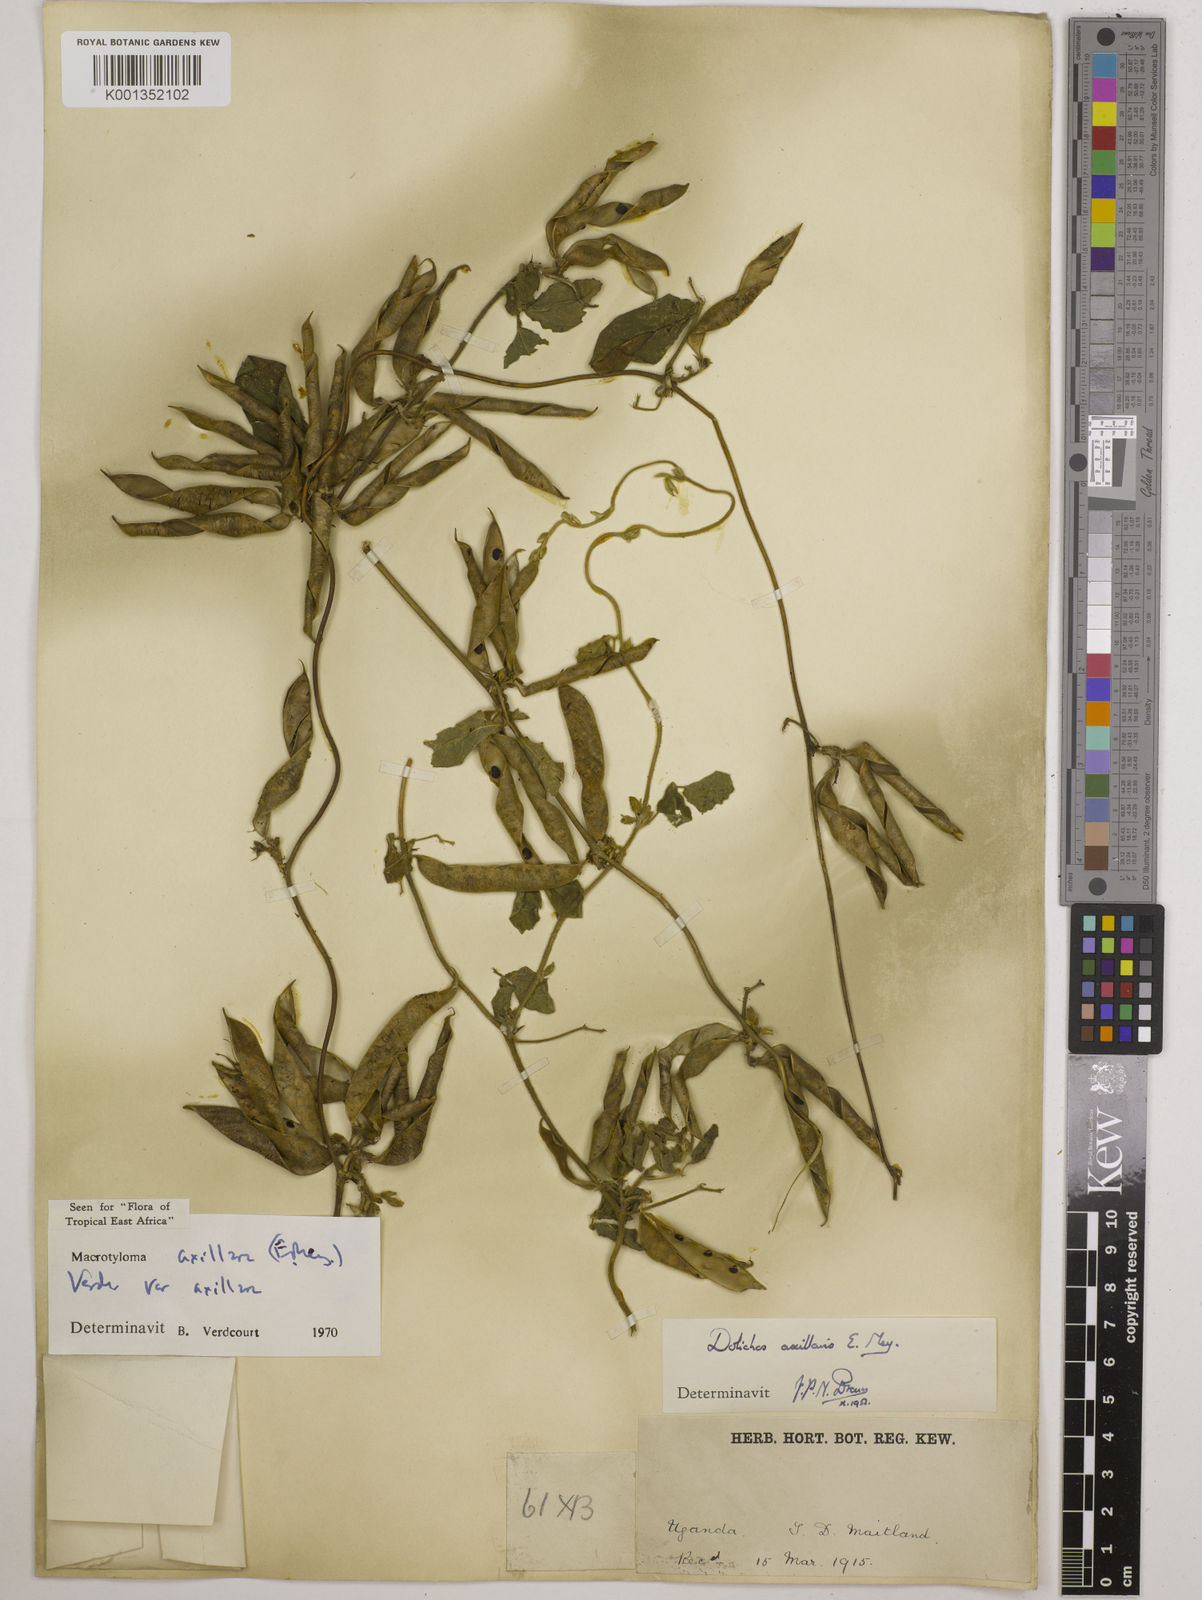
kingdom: Plantae
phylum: Tracheophyta
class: Magnoliopsida
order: Fabales
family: Fabaceae
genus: Macrotyloma
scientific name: Macrotyloma axillare
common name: Perennial horsegram
